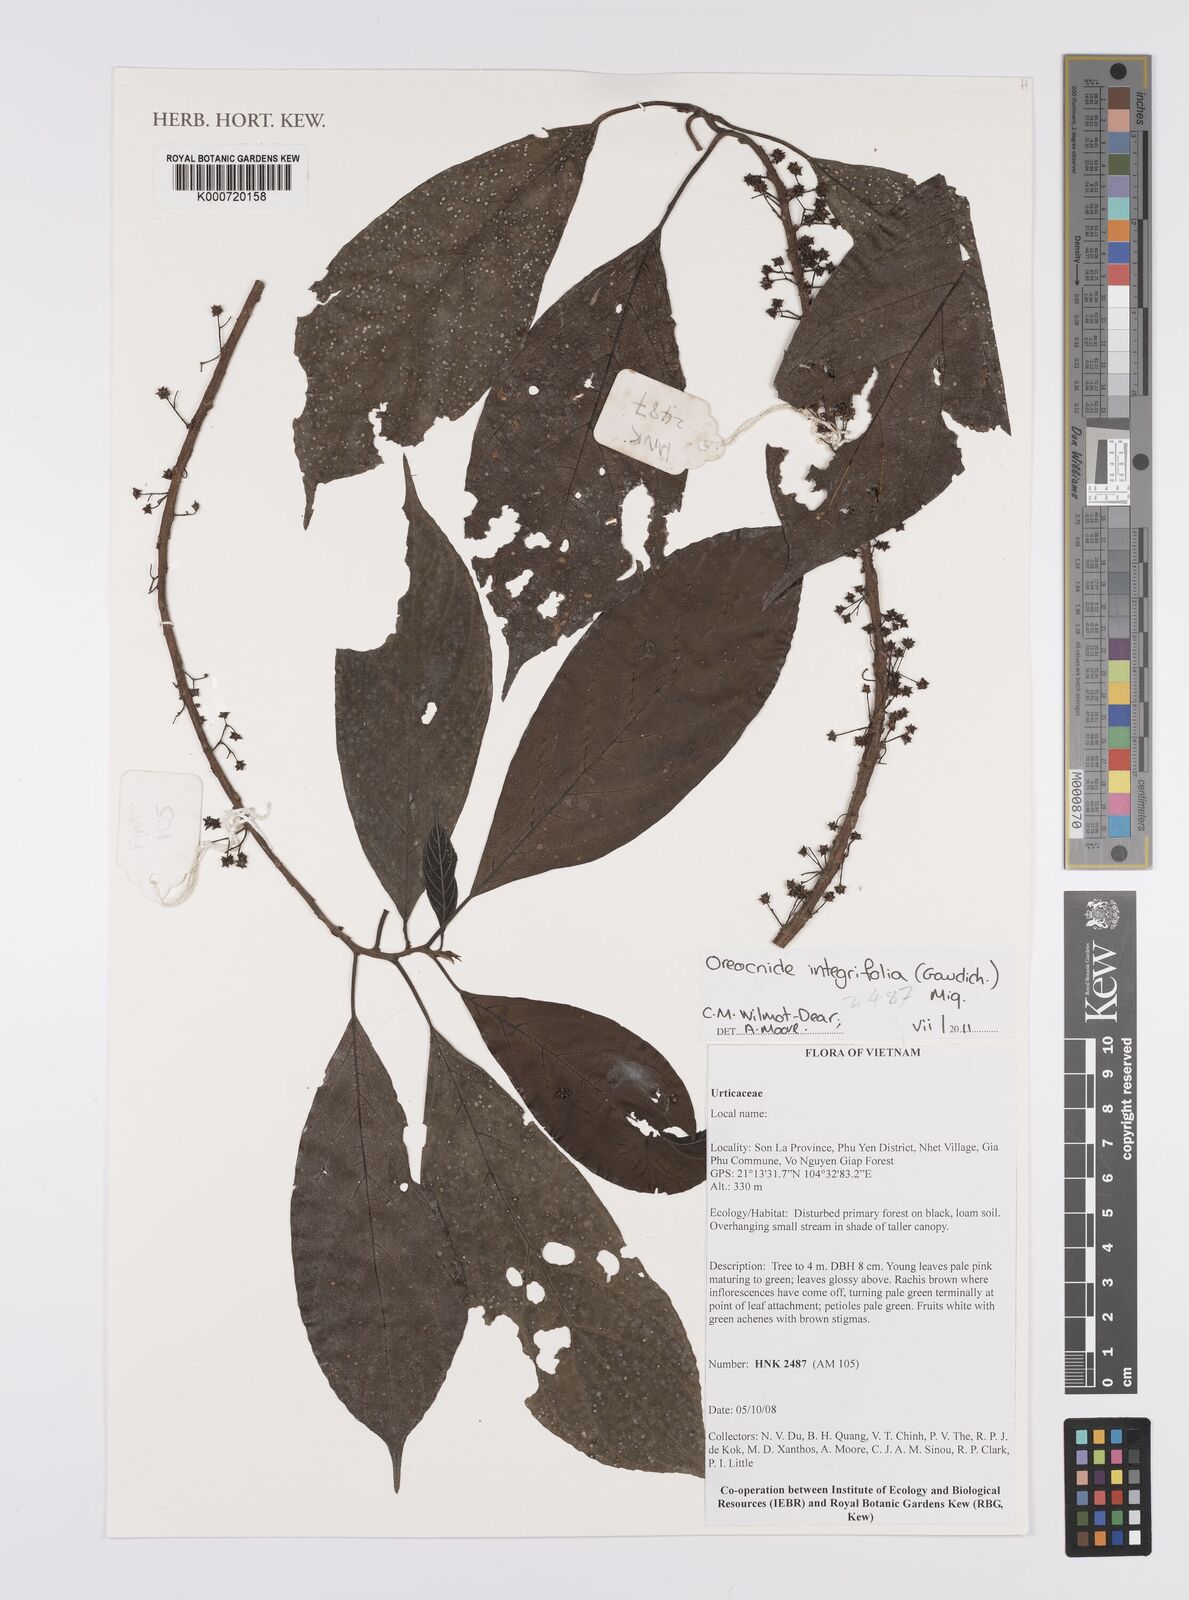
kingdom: Plantae
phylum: Tracheophyta
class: Magnoliopsida
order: Rosales
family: Urticaceae
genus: Oreocnide
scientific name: Oreocnide
